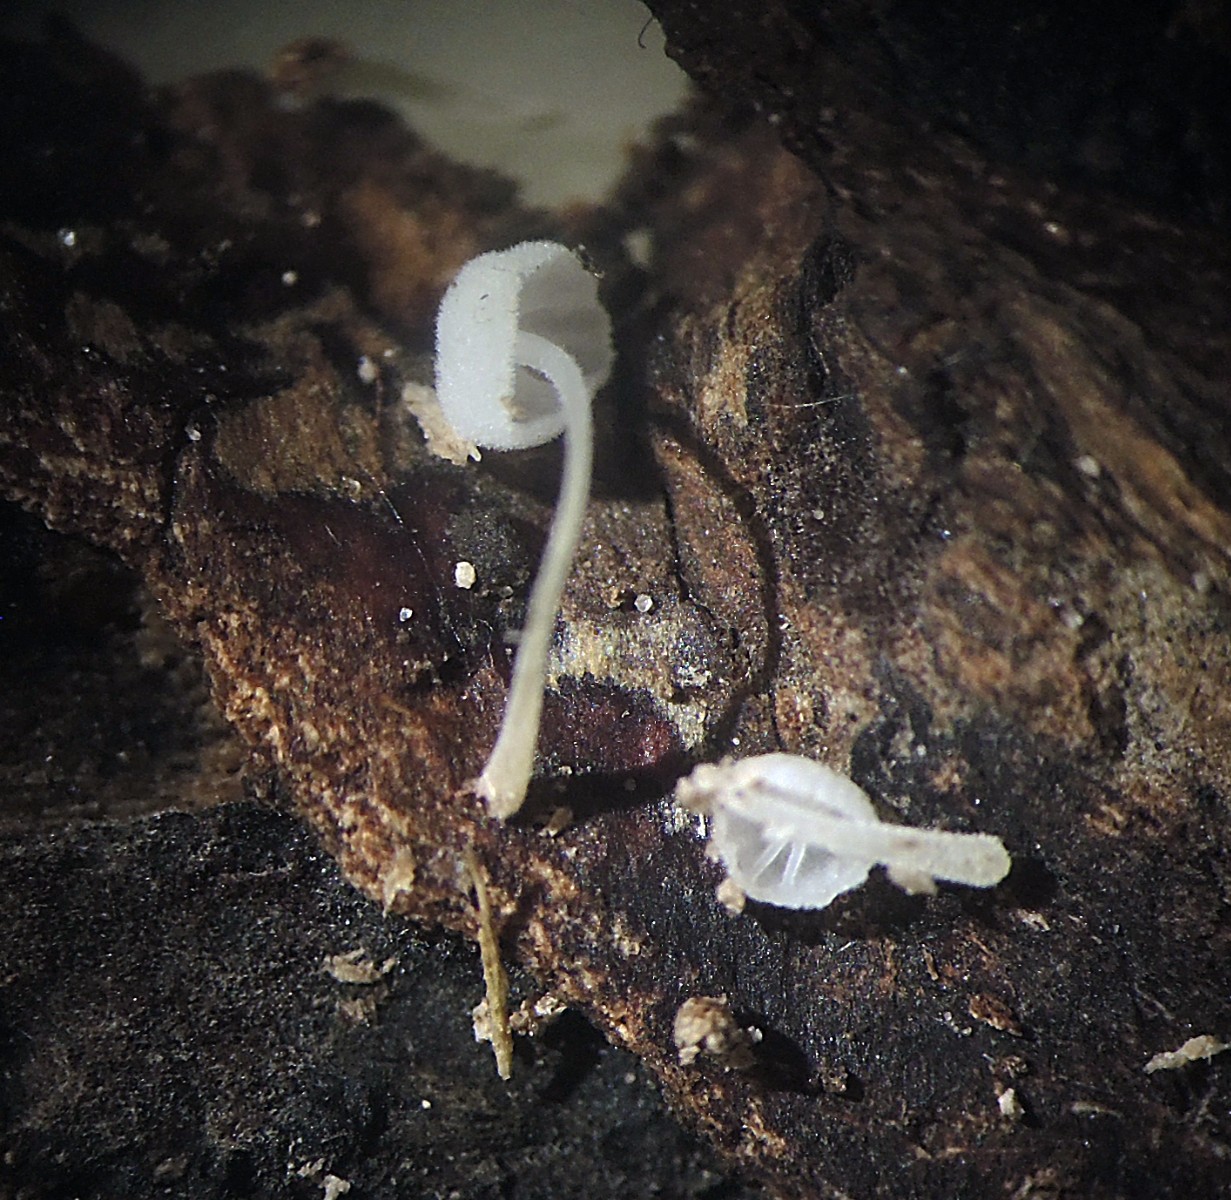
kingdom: Fungi
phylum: Basidiomycota
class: Agaricomycetes
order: Agaricales
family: Mycenaceae
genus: Hemimycena
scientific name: Hemimycena angustispora
